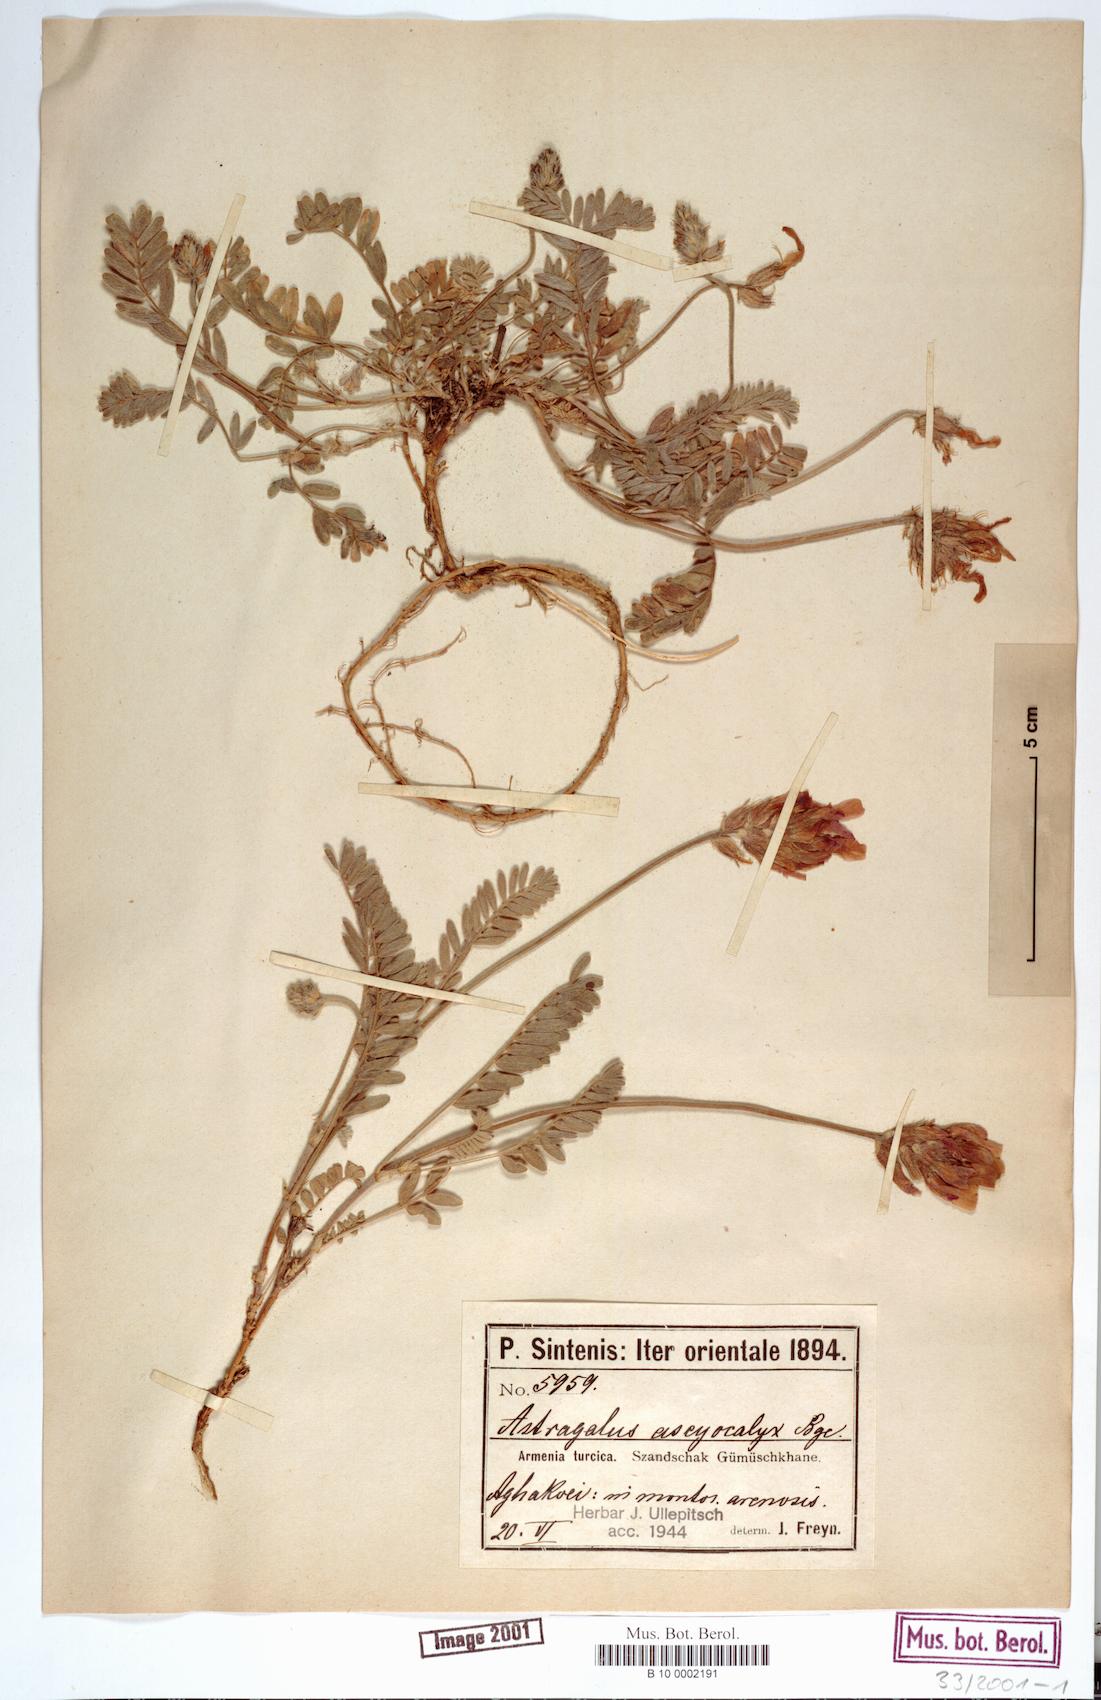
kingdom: Plantae
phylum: Tracheophyta
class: Magnoliopsida
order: Fabales
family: Fabaceae
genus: Astragalus
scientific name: Astragalus asciocalyx
